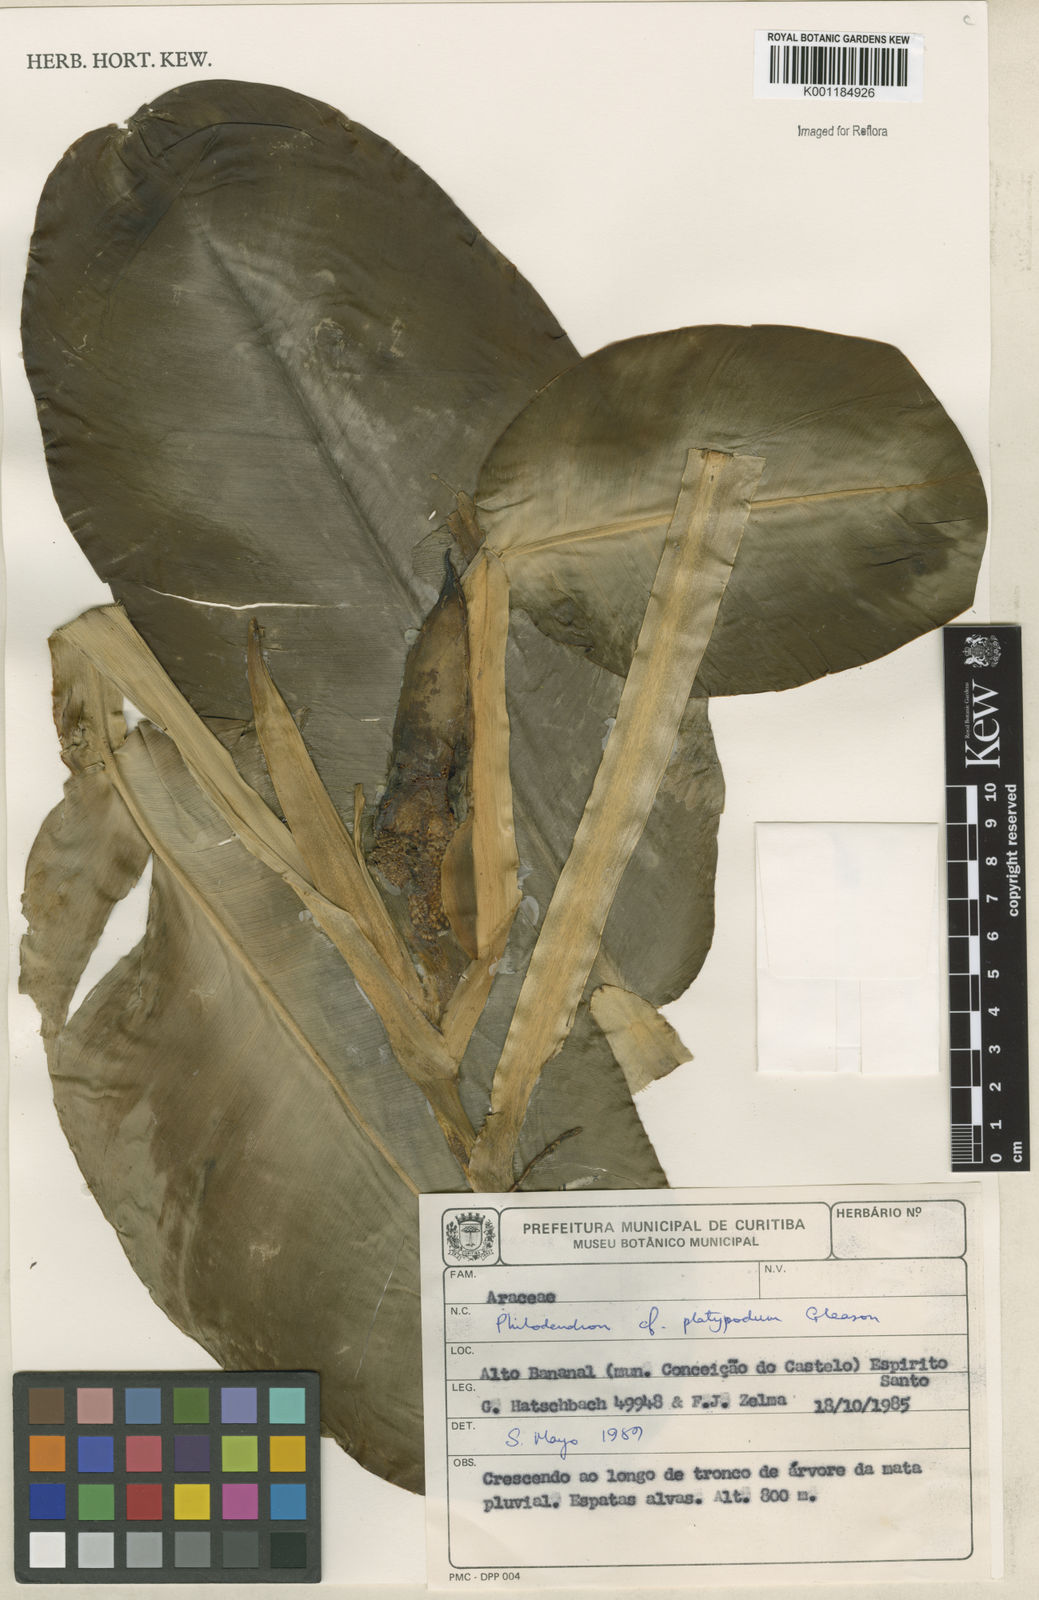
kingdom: Plantae
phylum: Tracheophyta
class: Liliopsida
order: Alismatales
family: Araceae
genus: Philodendron
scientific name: Philodendron platypodum
